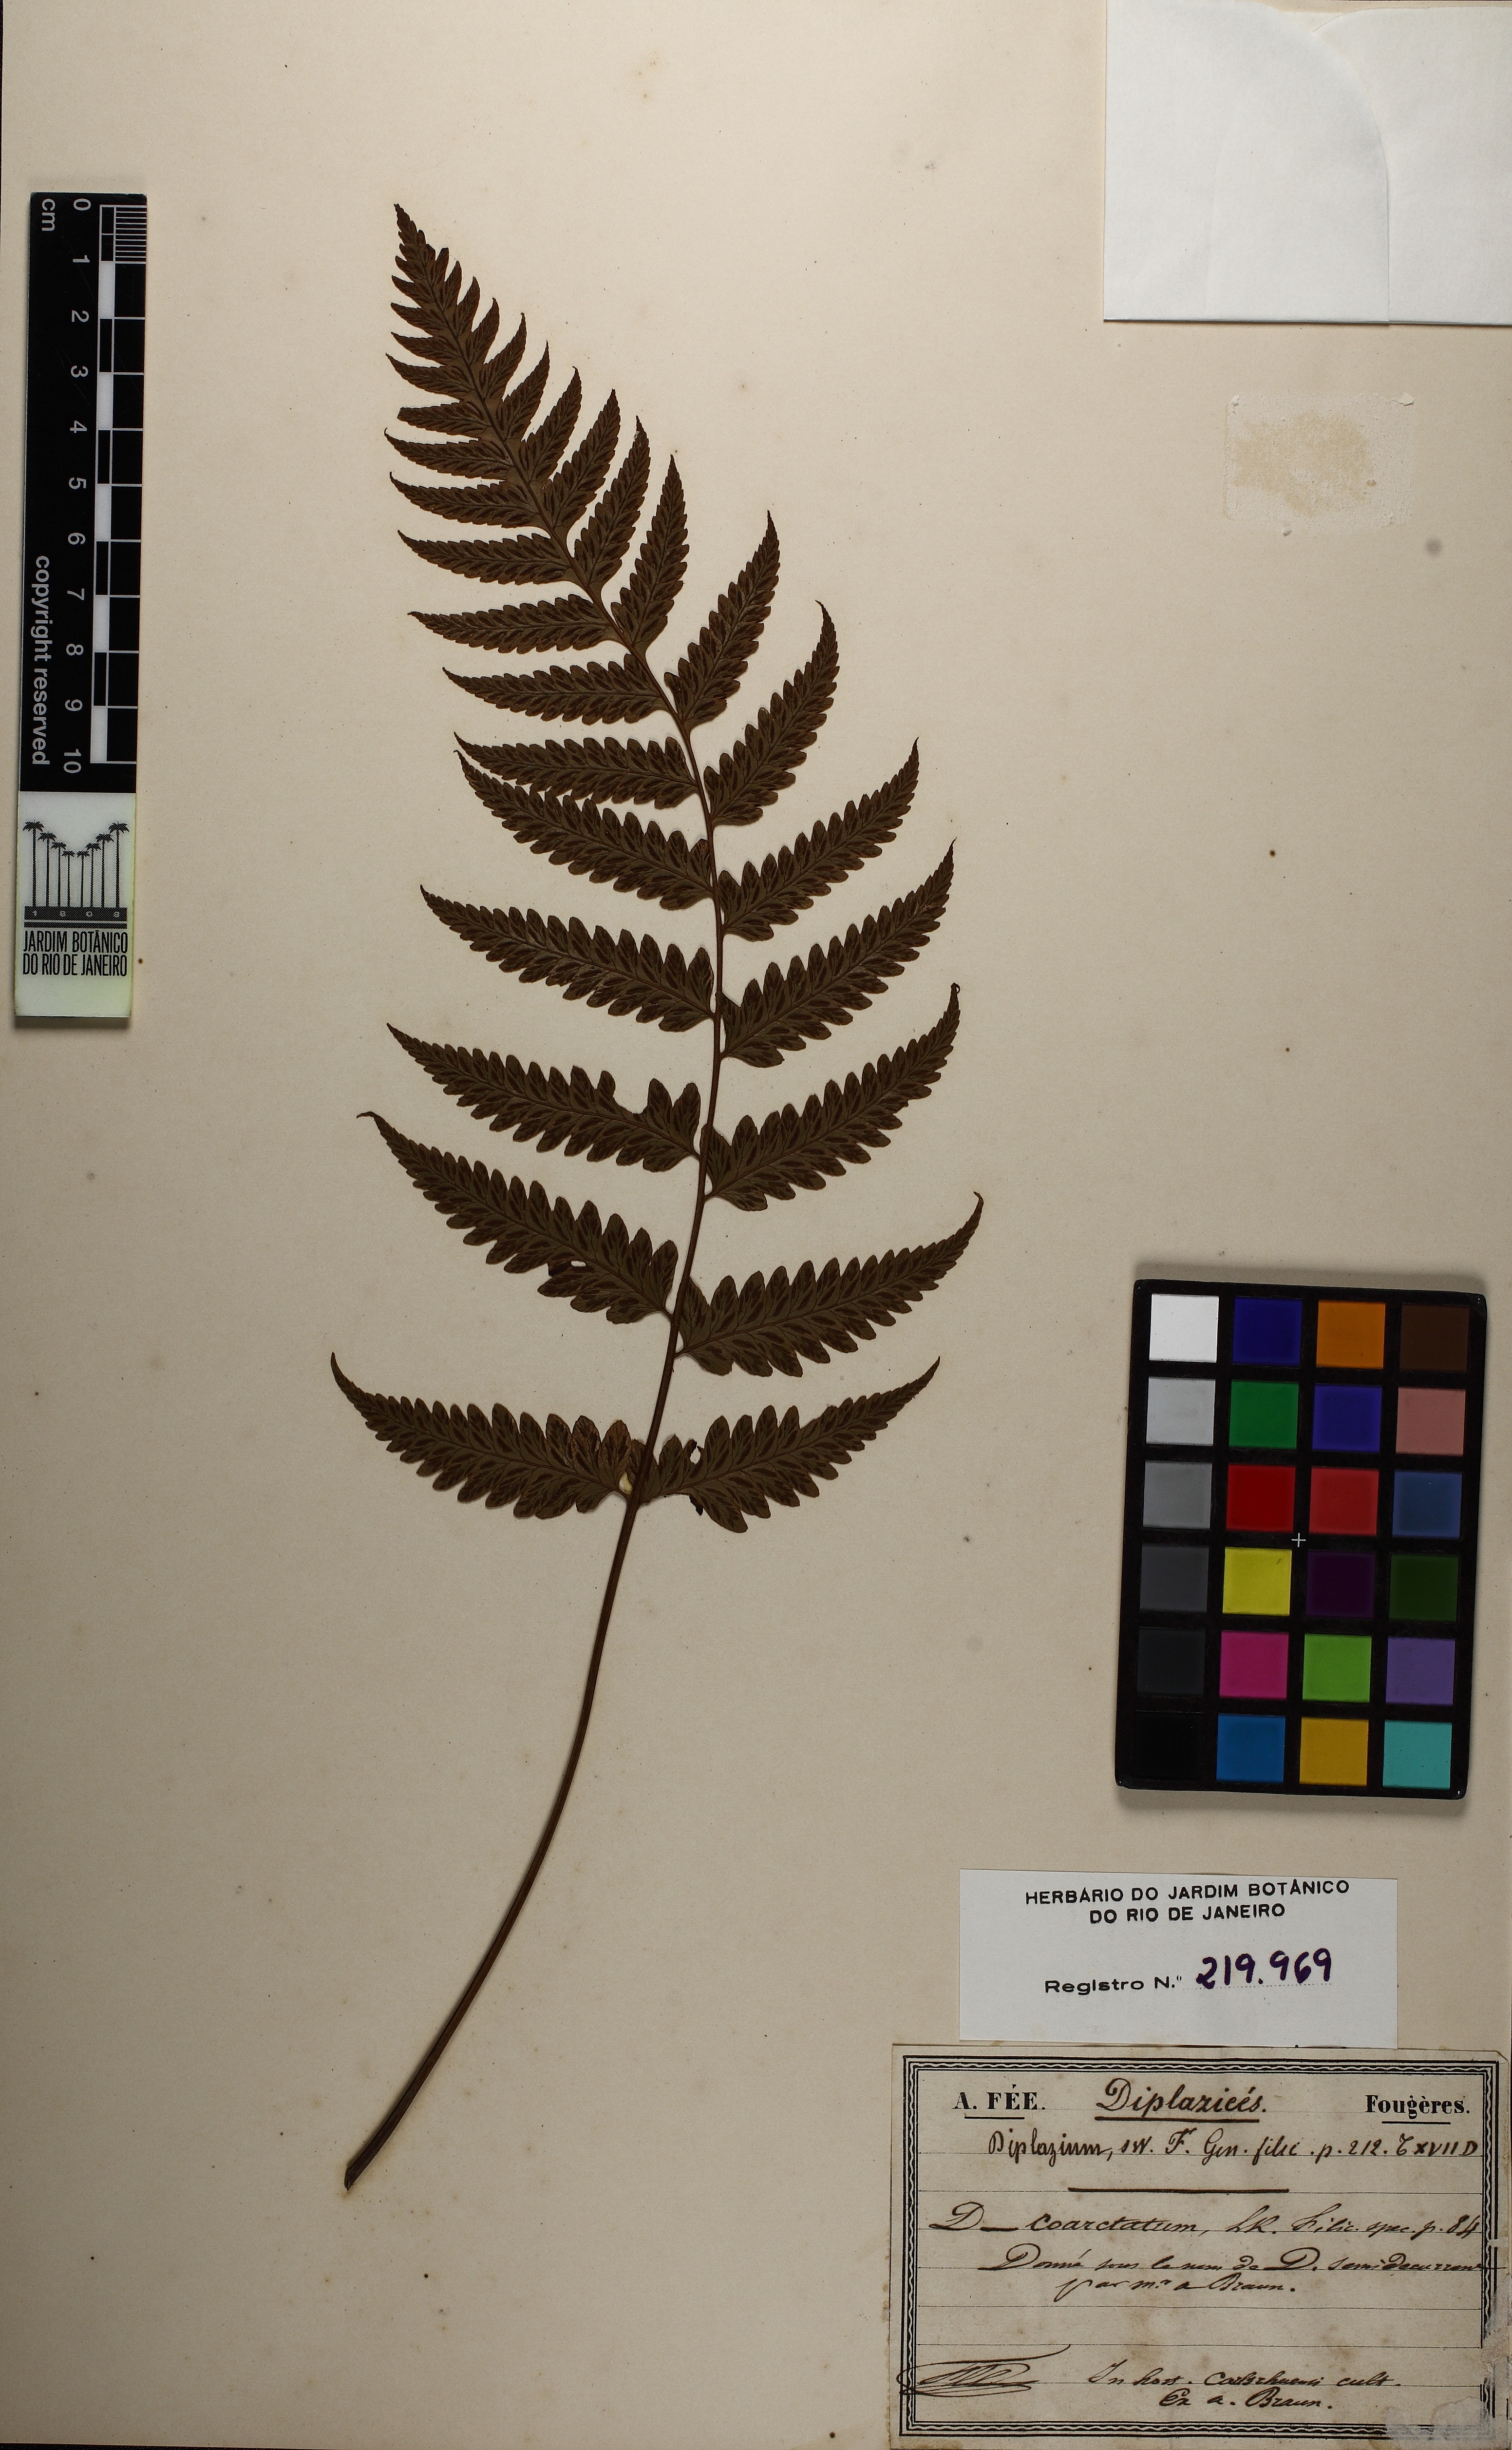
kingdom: Plantae
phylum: Tracheophyta
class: Polypodiopsida
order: Polypodiales
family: Athyriaceae
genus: Diplazium
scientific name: Diplazium cristatum
